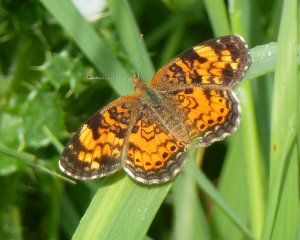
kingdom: Animalia
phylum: Arthropoda
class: Insecta
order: Lepidoptera
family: Nymphalidae
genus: Phyciodes
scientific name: Phyciodes tharos
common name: Northern Crescent
